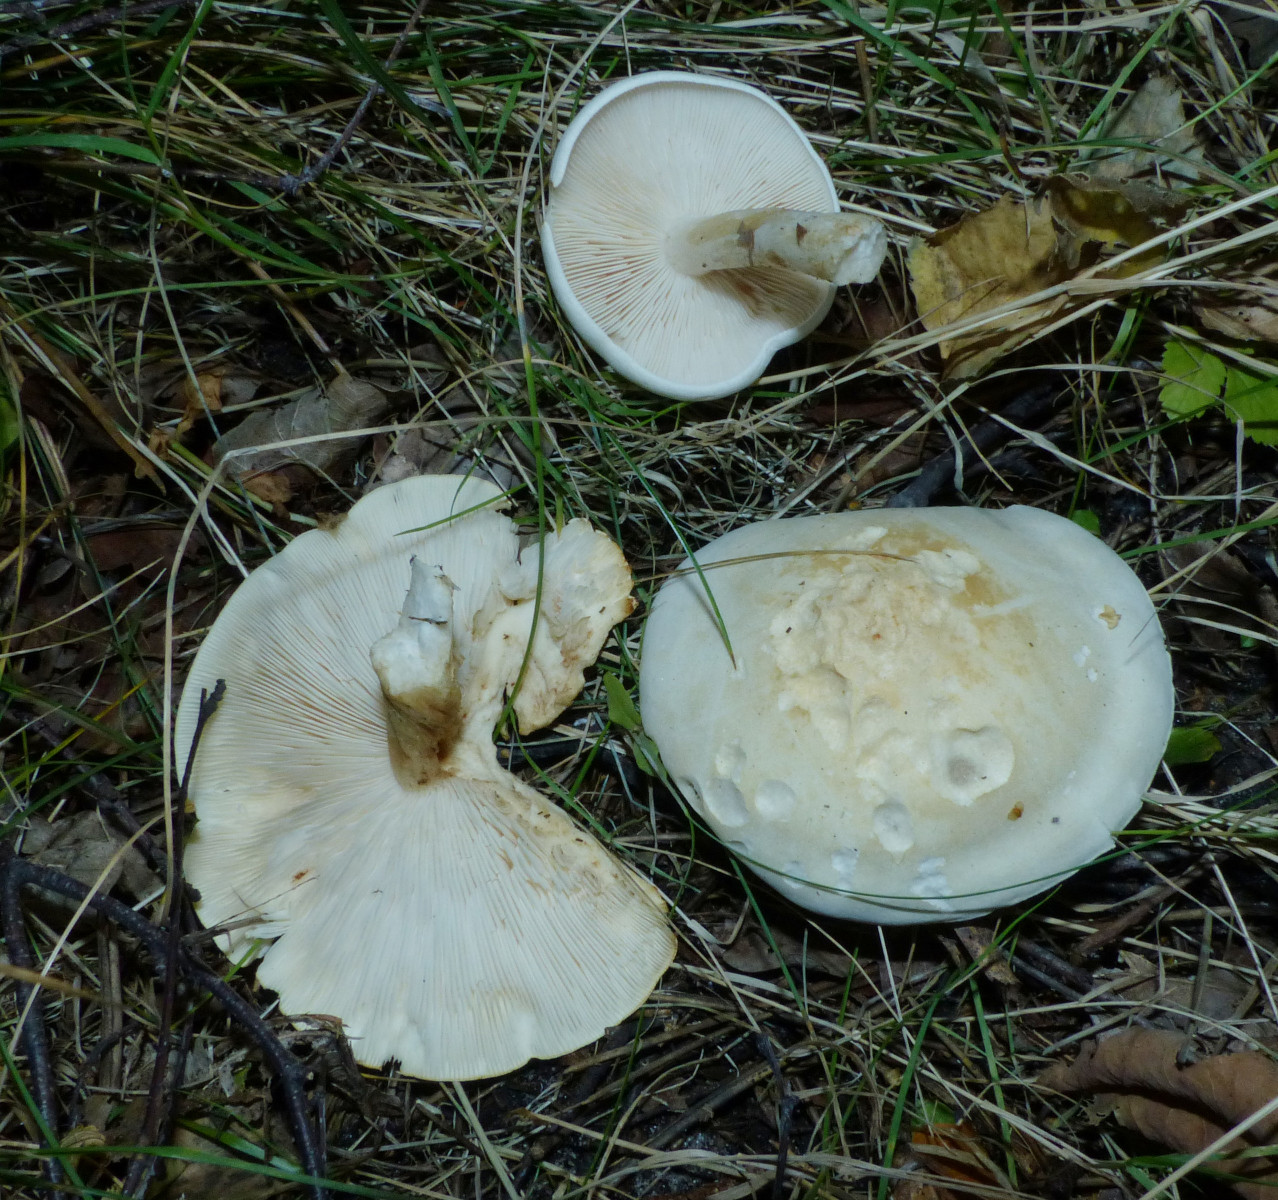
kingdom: Fungi
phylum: Basidiomycota
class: Agaricomycetes
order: Agaricales
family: Tricholomataceae
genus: Tricholoma
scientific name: Tricholoma stiparophyllum
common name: hvid ridderhat
